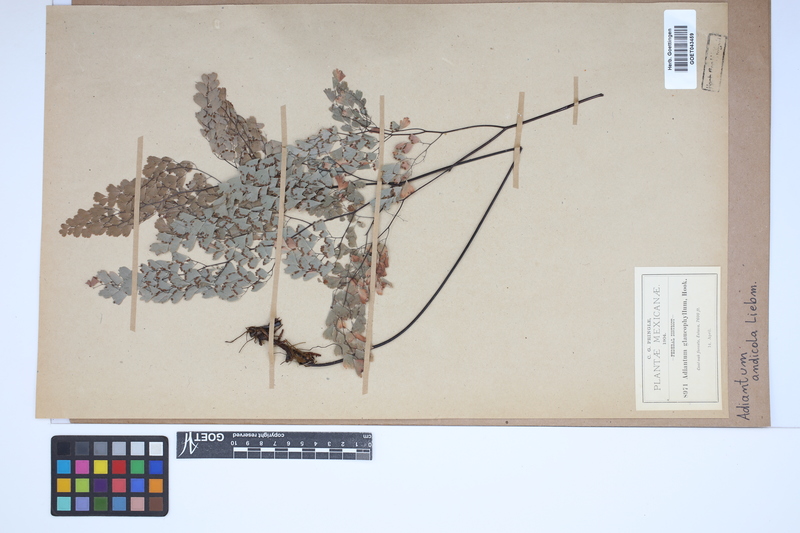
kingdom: Plantae
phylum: Tracheophyta
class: Polypodiopsida
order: Polypodiales
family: Pteridaceae
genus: Adiantum
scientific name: Adiantum andicola
